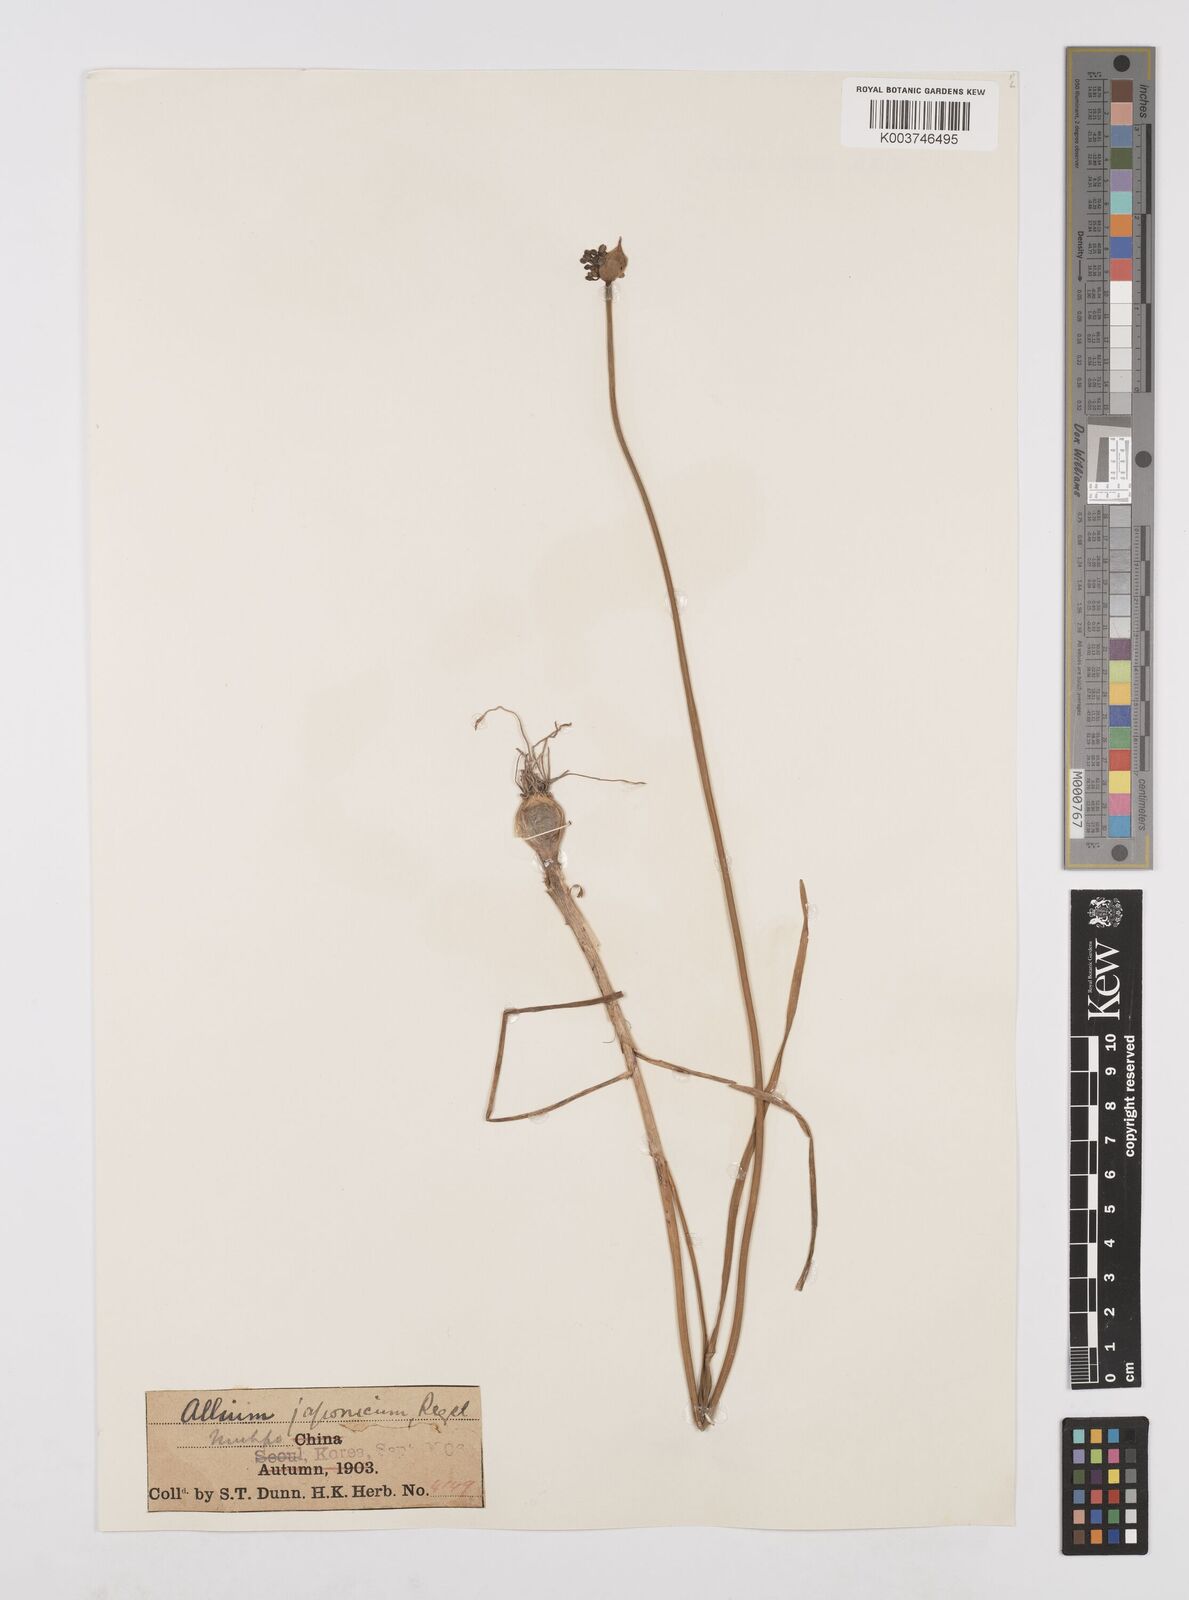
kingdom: Plantae
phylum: Tracheophyta
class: Liliopsida
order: Asparagales
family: Amaryllidaceae
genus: Allium
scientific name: Allium sacculiferum
